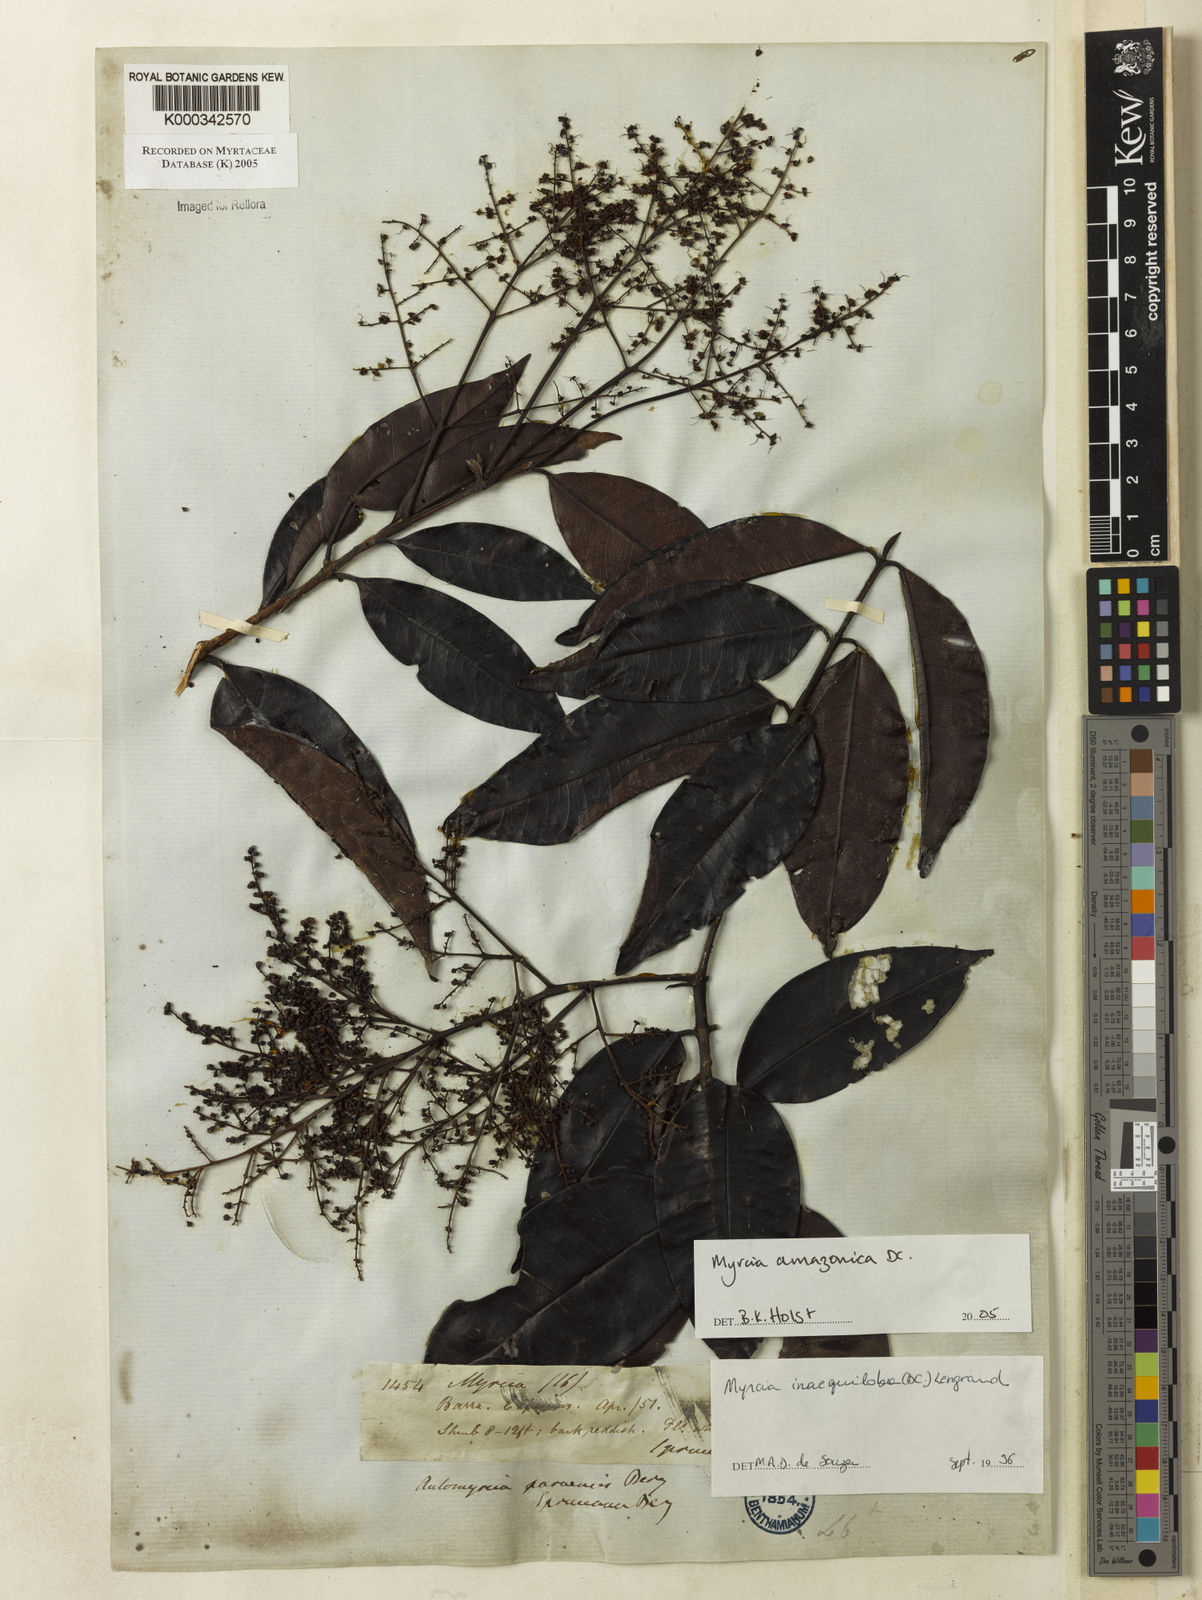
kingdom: Plantae
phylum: Tracheophyta
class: Magnoliopsida
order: Myrtales
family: Myrtaceae
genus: Myrcia
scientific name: Myrcia amazonica
